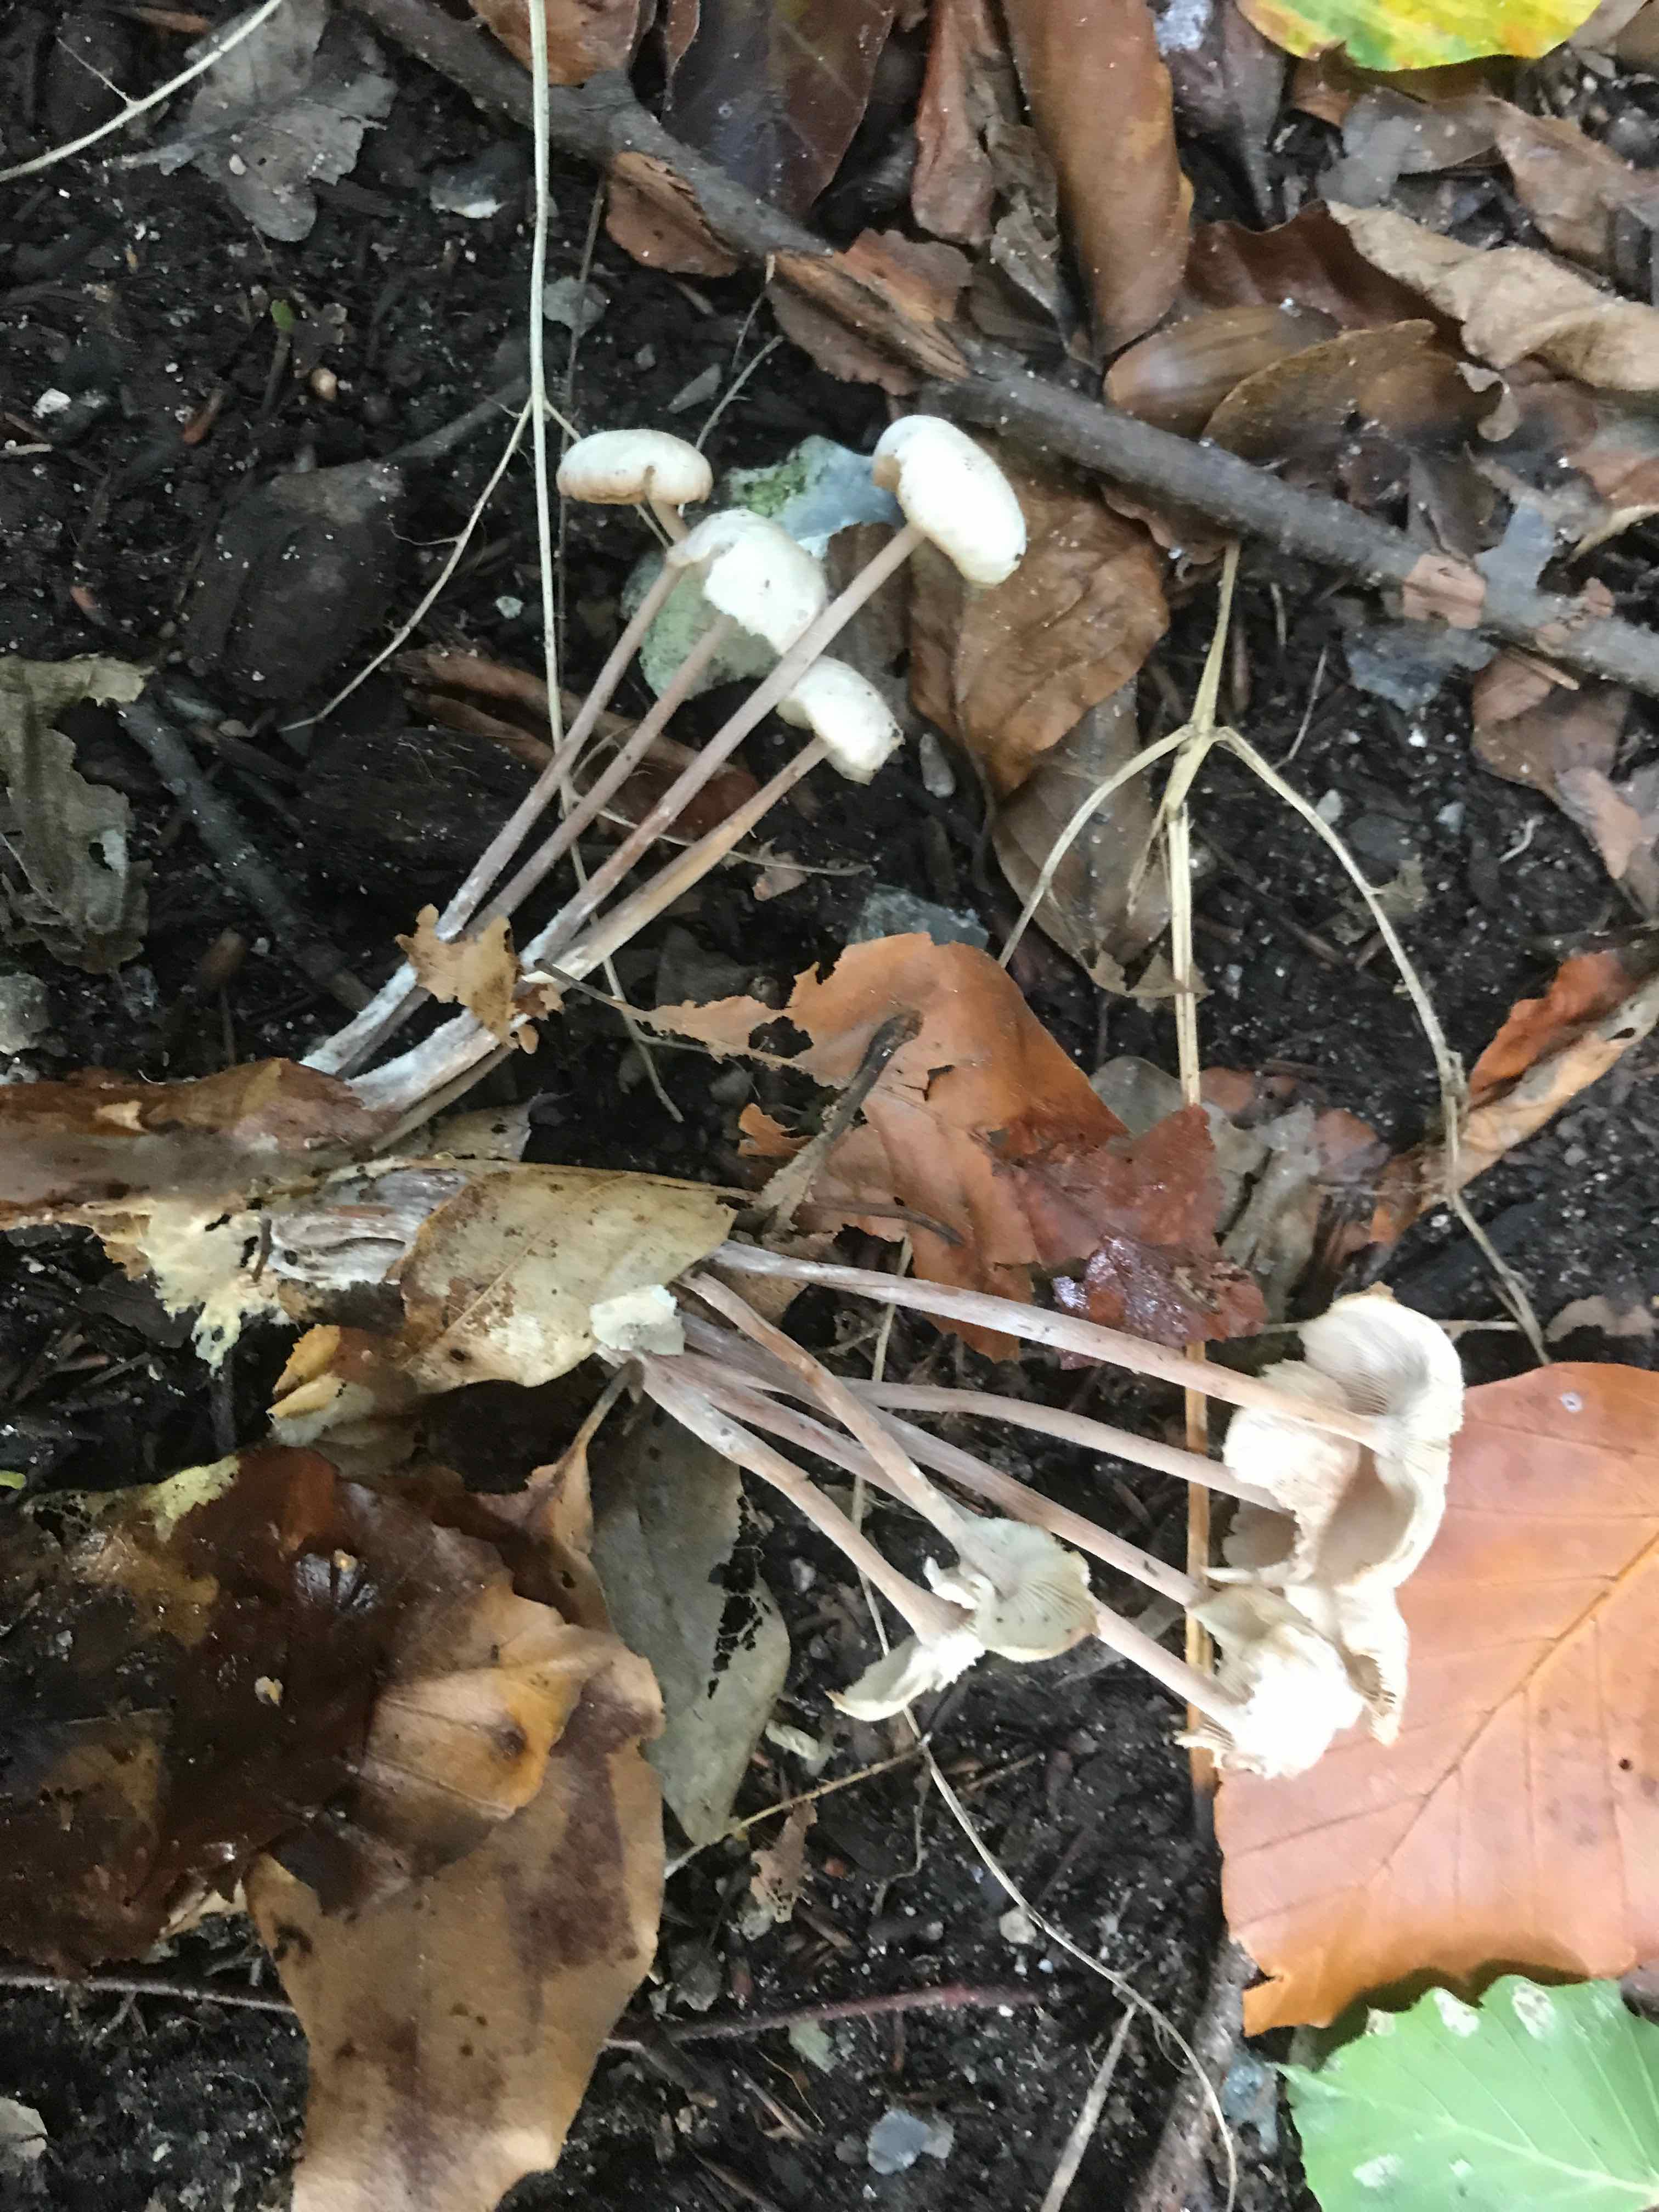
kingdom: Fungi
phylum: Basidiomycota
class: Agaricomycetes
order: Agaricales
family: Omphalotaceae
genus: Collybiopsis
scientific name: Collybiopsis confluens
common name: knippe-fladhat
